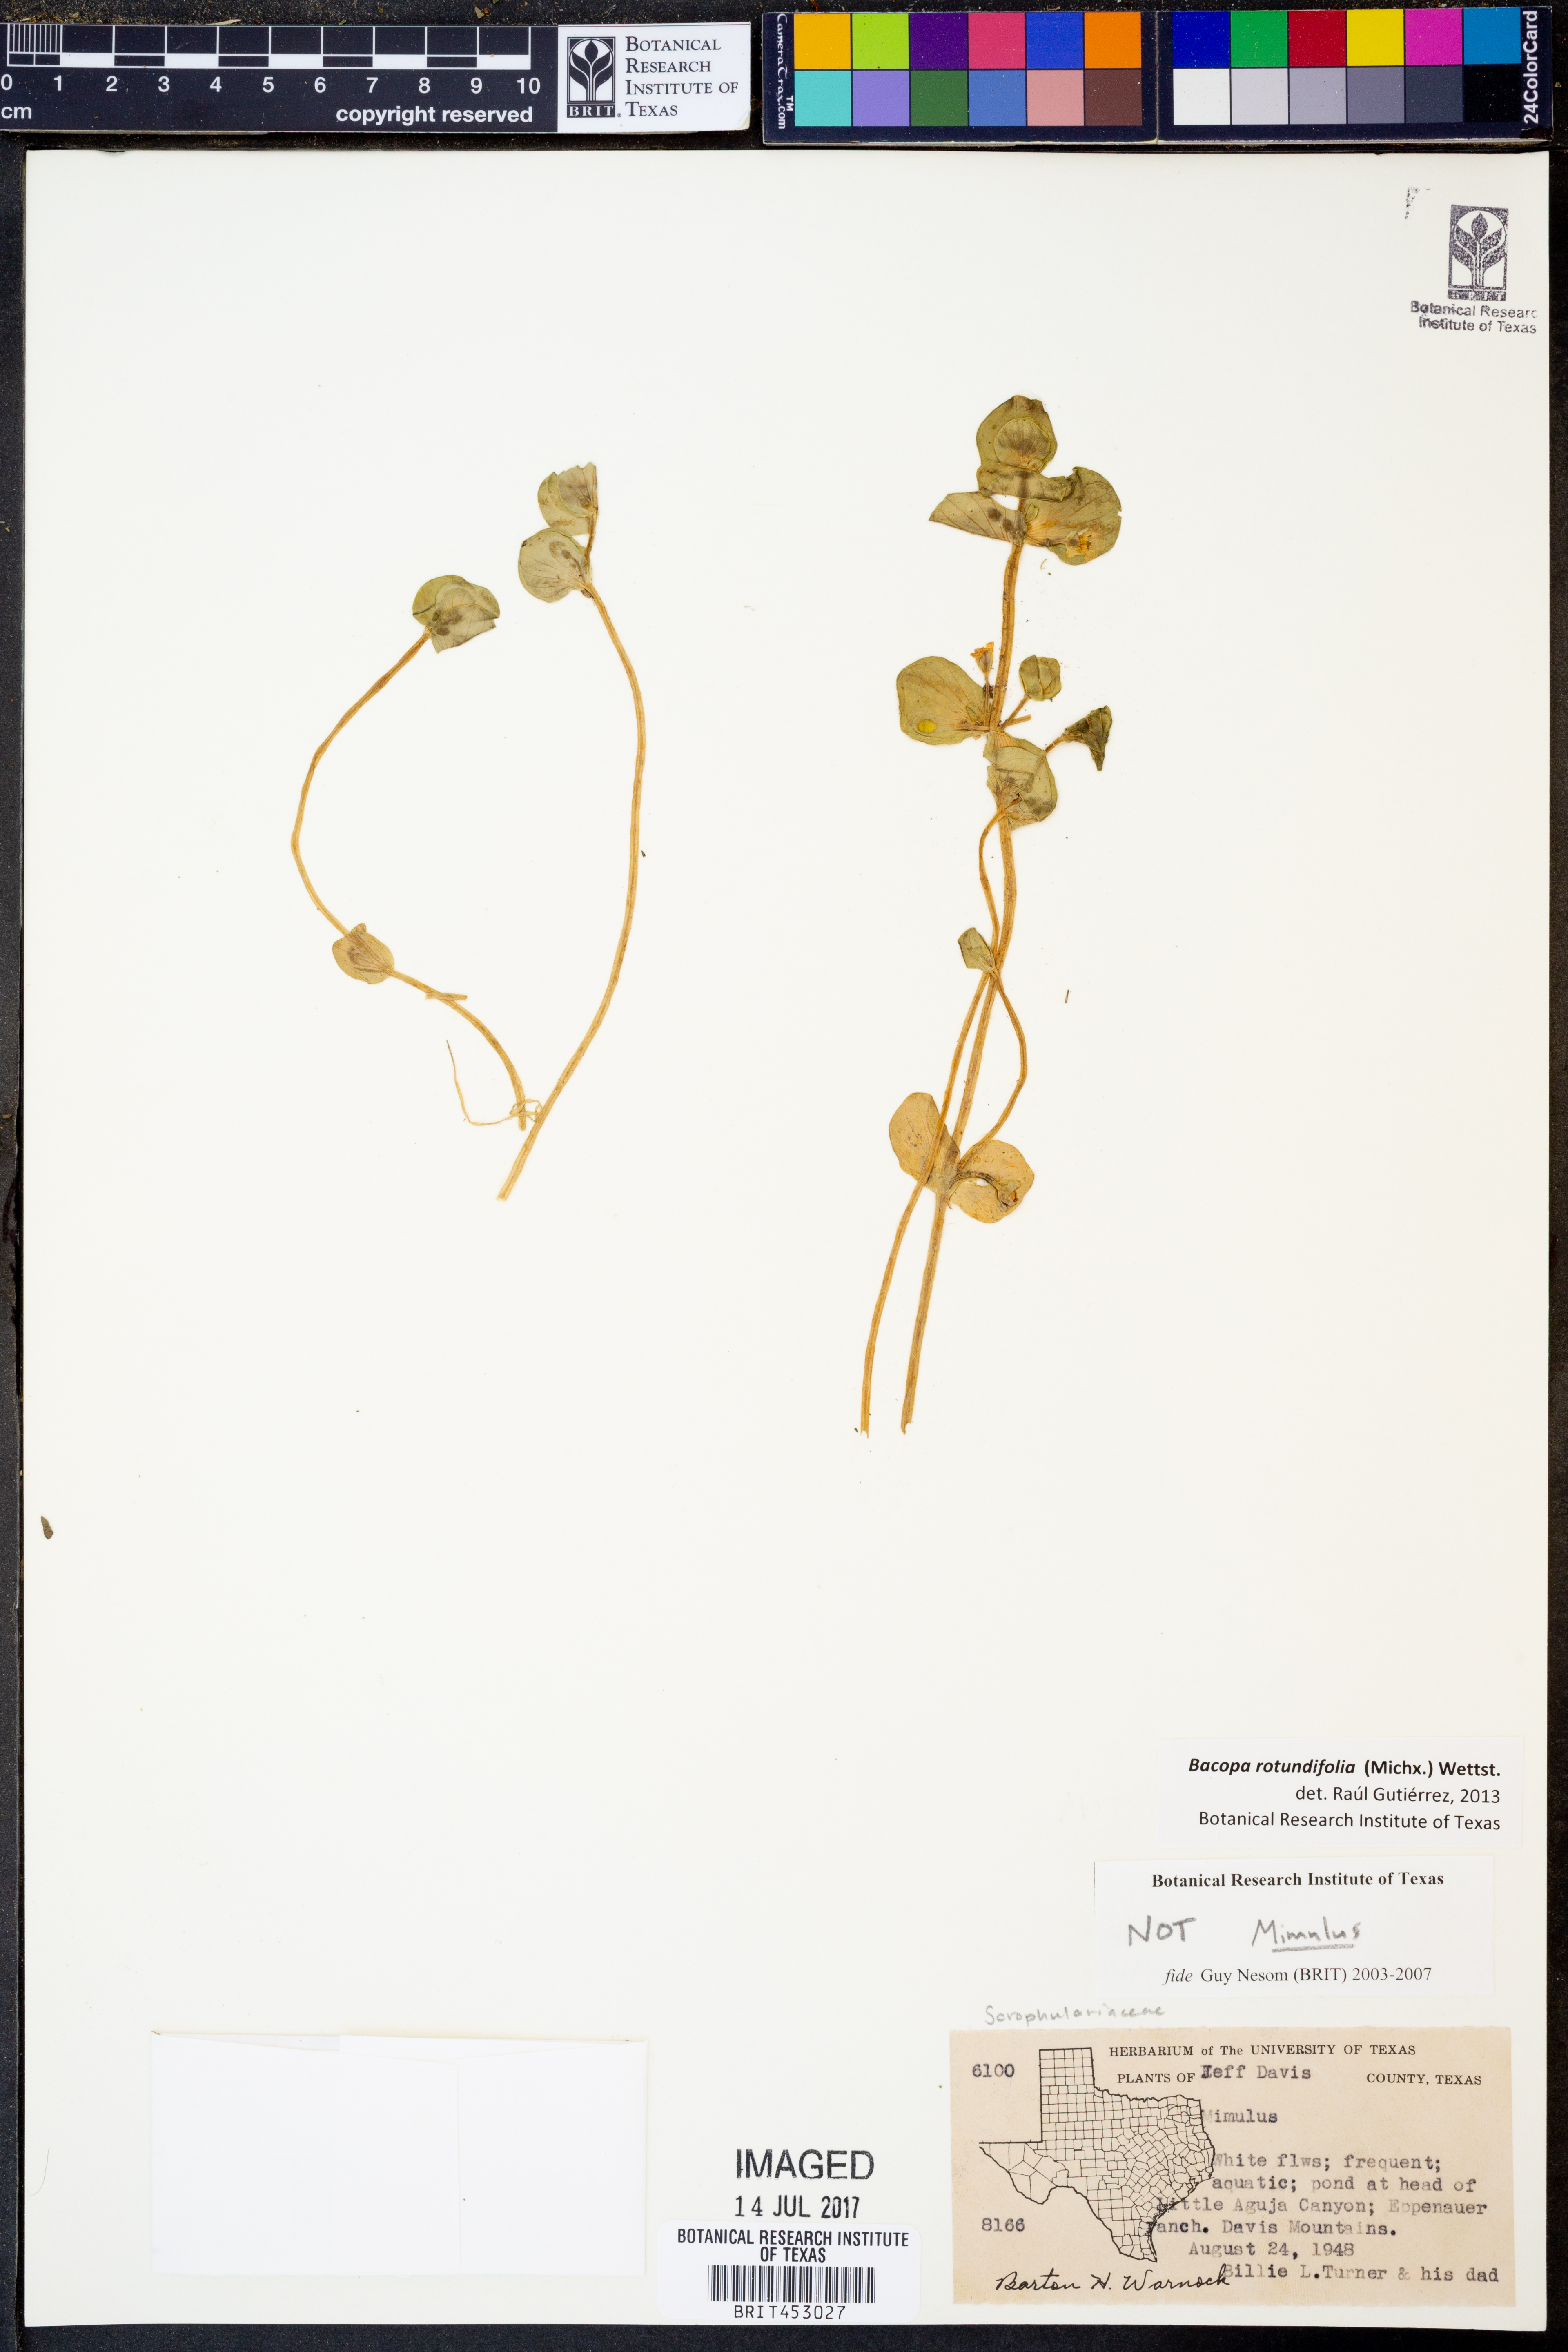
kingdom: Plantae
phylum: Tracheophyta
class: Magnoliopsida
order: Lamiales
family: Plantaginaceae
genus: Bacopa
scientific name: Bacopa rotundifolia
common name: Disc water hyssop
